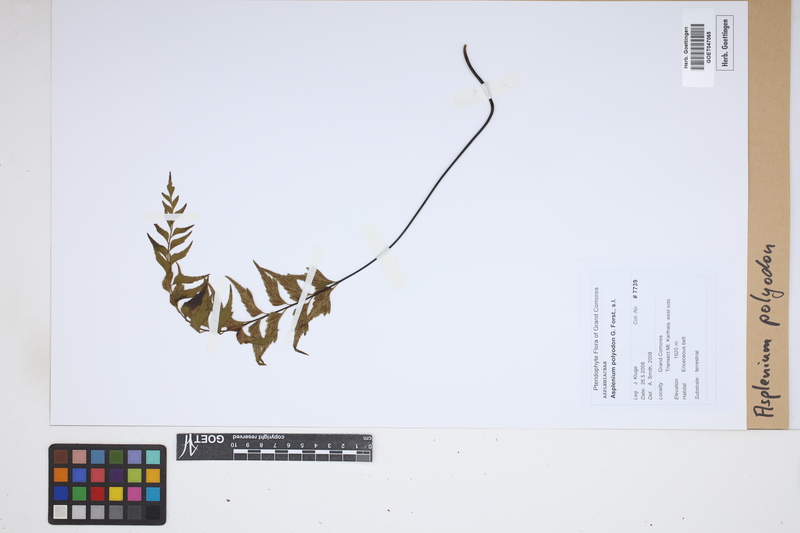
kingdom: Plantae
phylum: Tracheophyta
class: Polypodiopsida
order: Polypodiales
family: Aspleniaceae
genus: Asplenium
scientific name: Asplenium polyodon
